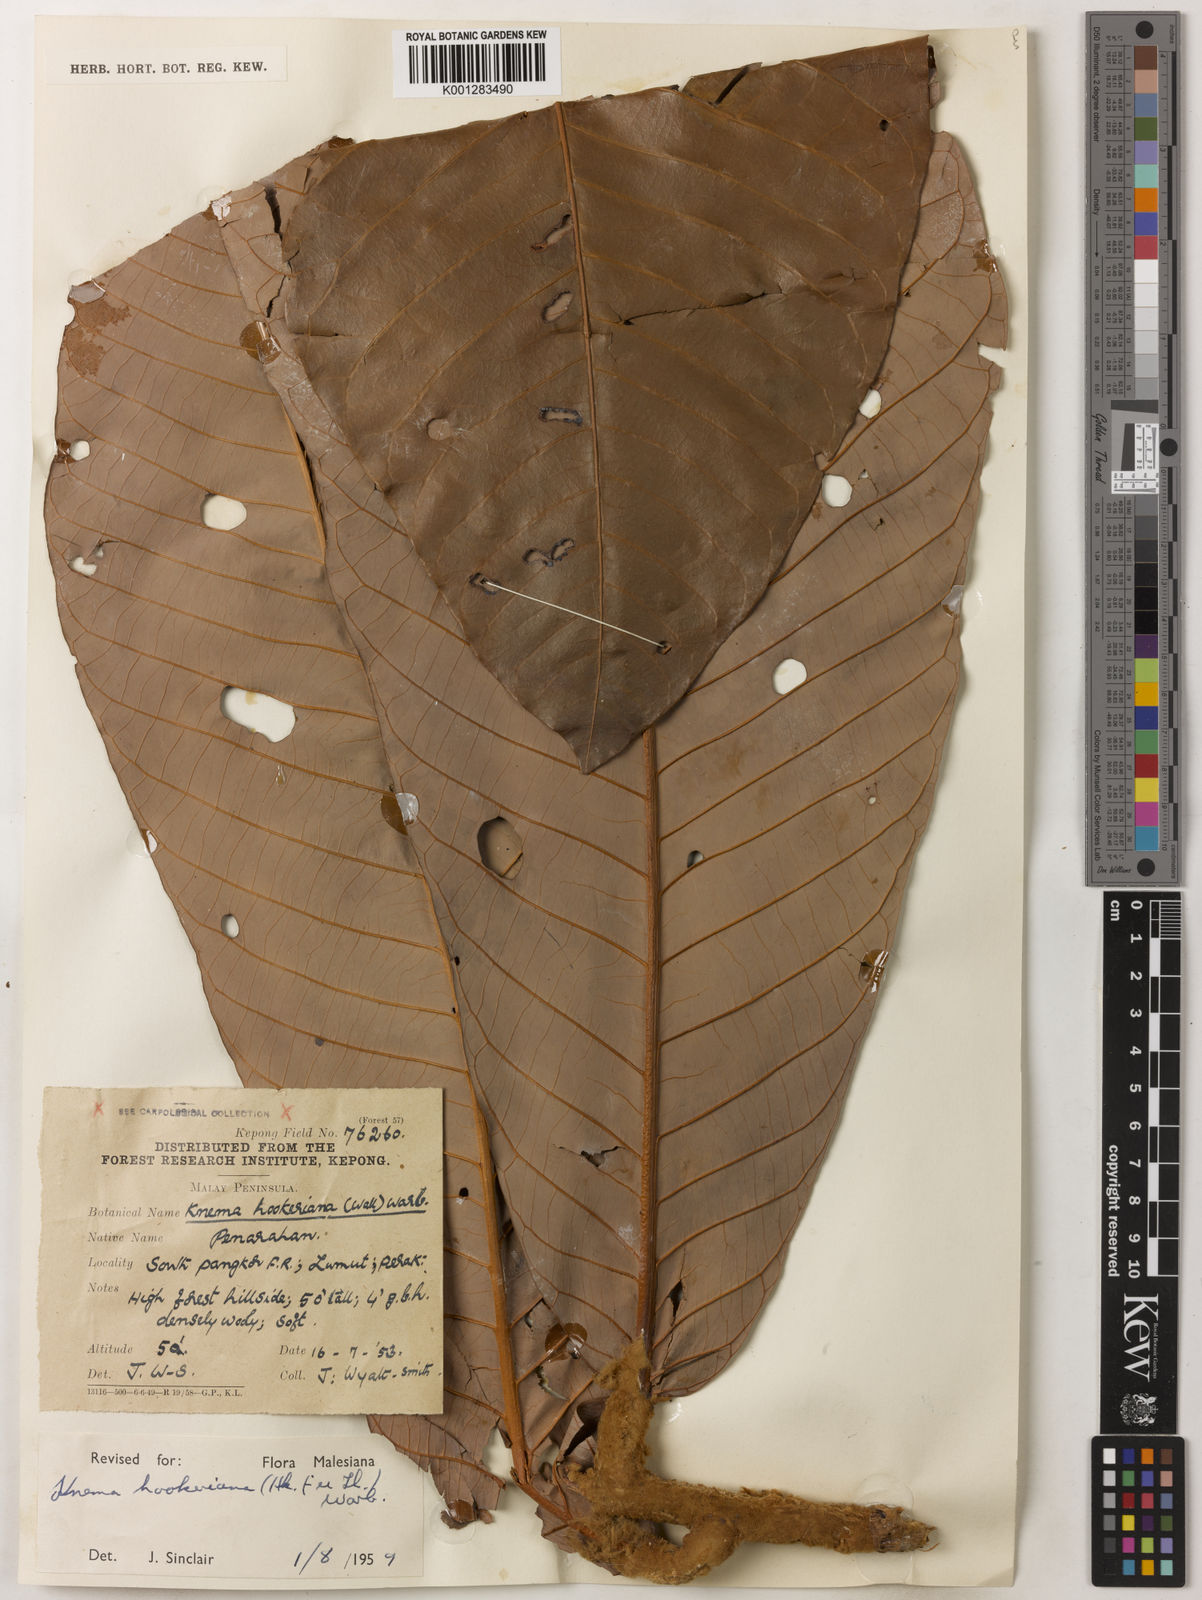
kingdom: Plantae
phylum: Tracheophyta
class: Magnoliopsida
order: Magnoliales
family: Myristicaceae
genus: Knema
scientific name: Knema hookeriana
